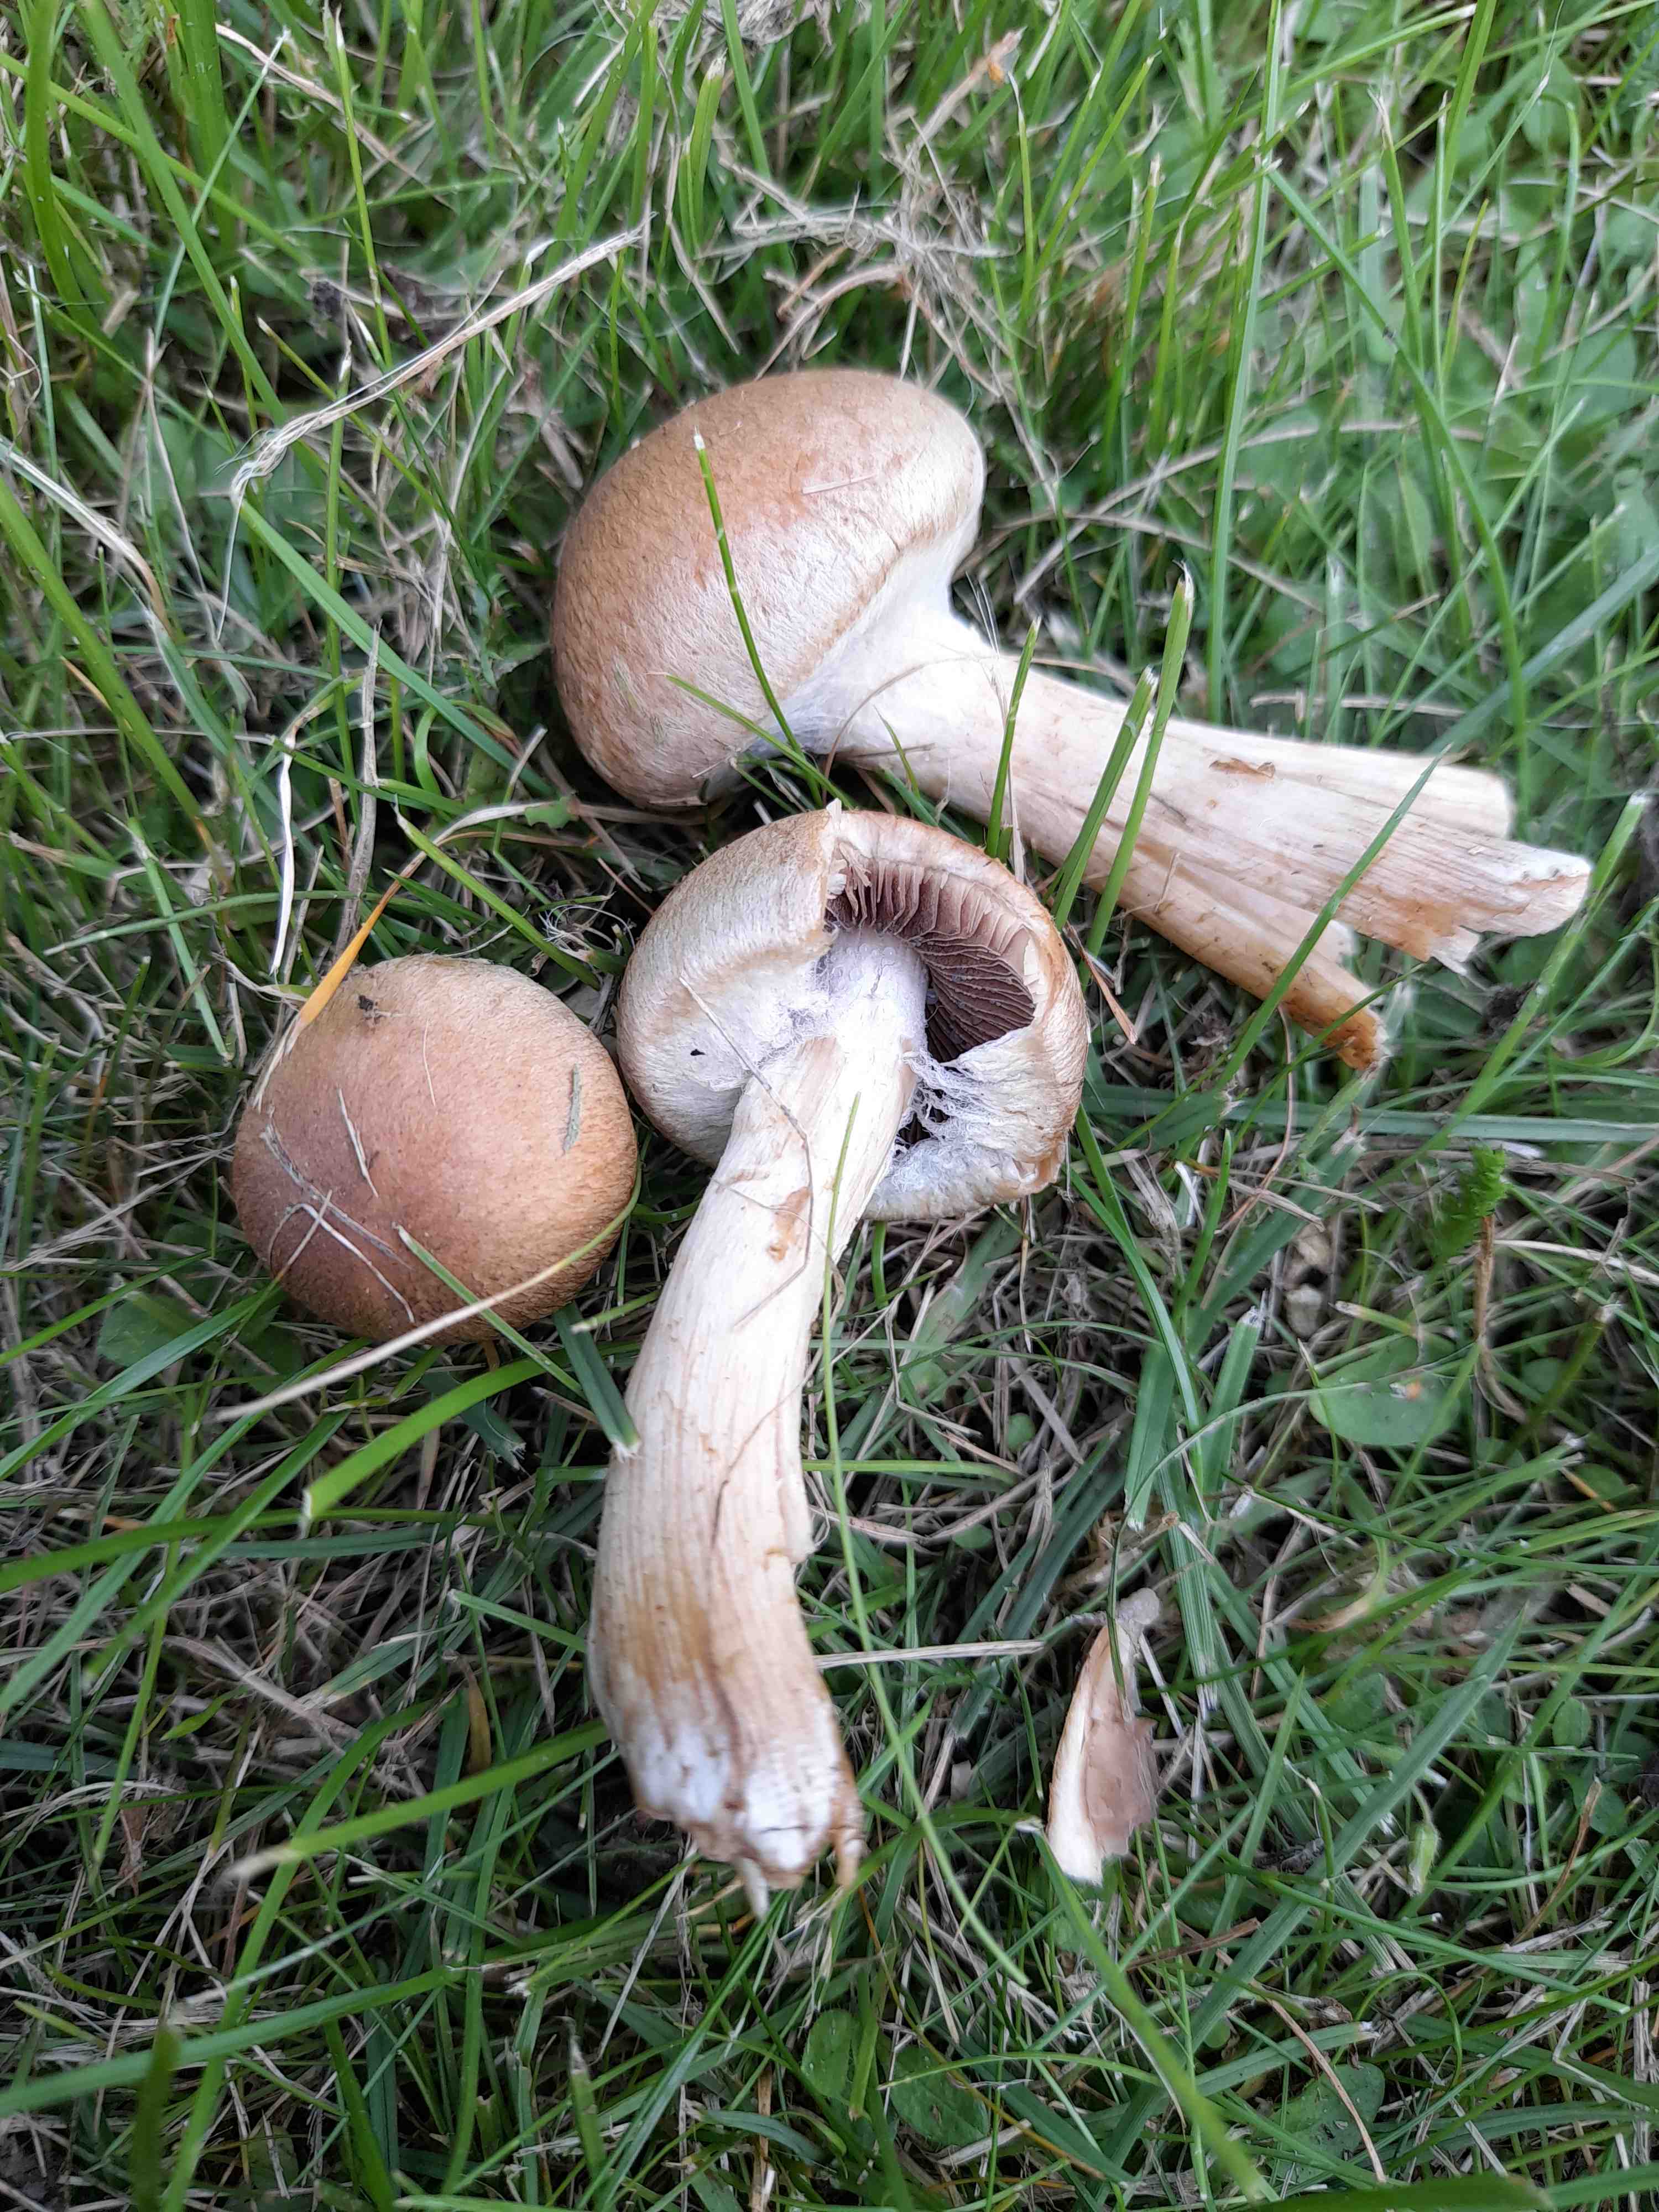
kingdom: Fungi
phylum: Basidiomycota
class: Agaricomycetes
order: Agaricales
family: Psathyrellaceae
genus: Lacrymaria
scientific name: Lacrymaria lacrymabunda
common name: grædende mørkhat
